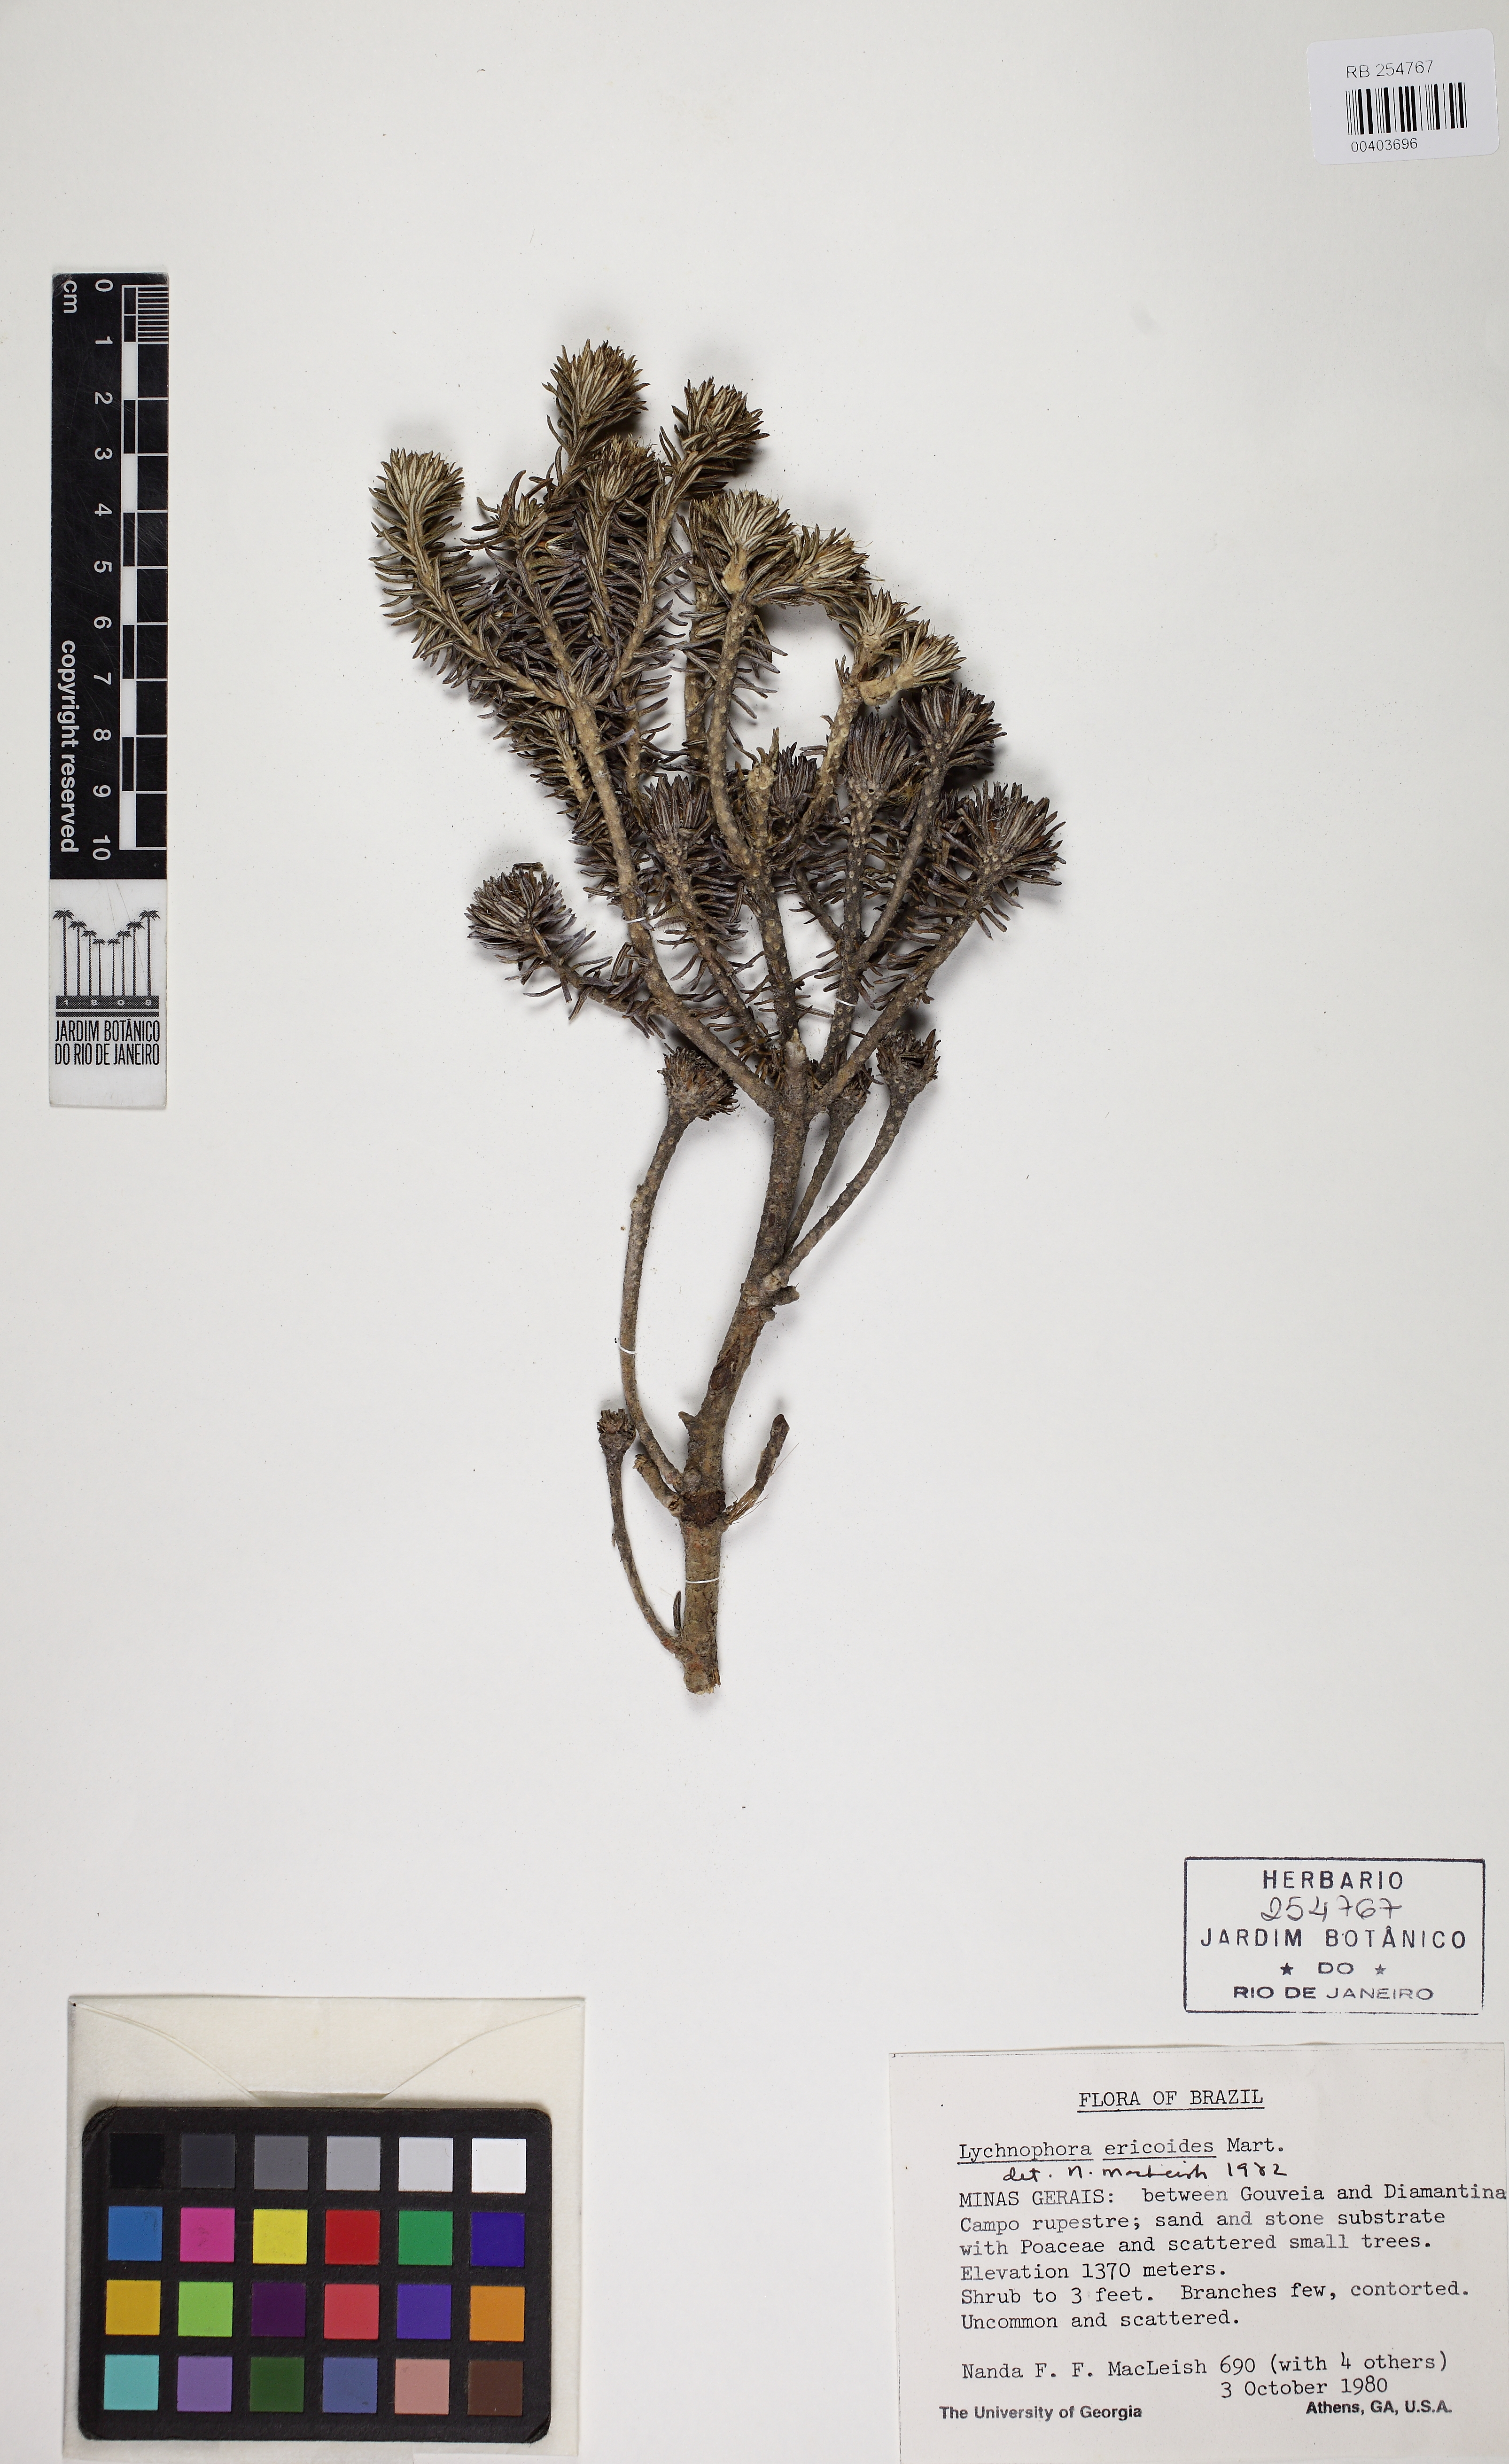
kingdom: Plantae
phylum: Tracheophyta
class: Magnoliopsida
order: Asterales
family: Asteraceae
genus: Lychnophora
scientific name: Lychnophora pohlii
